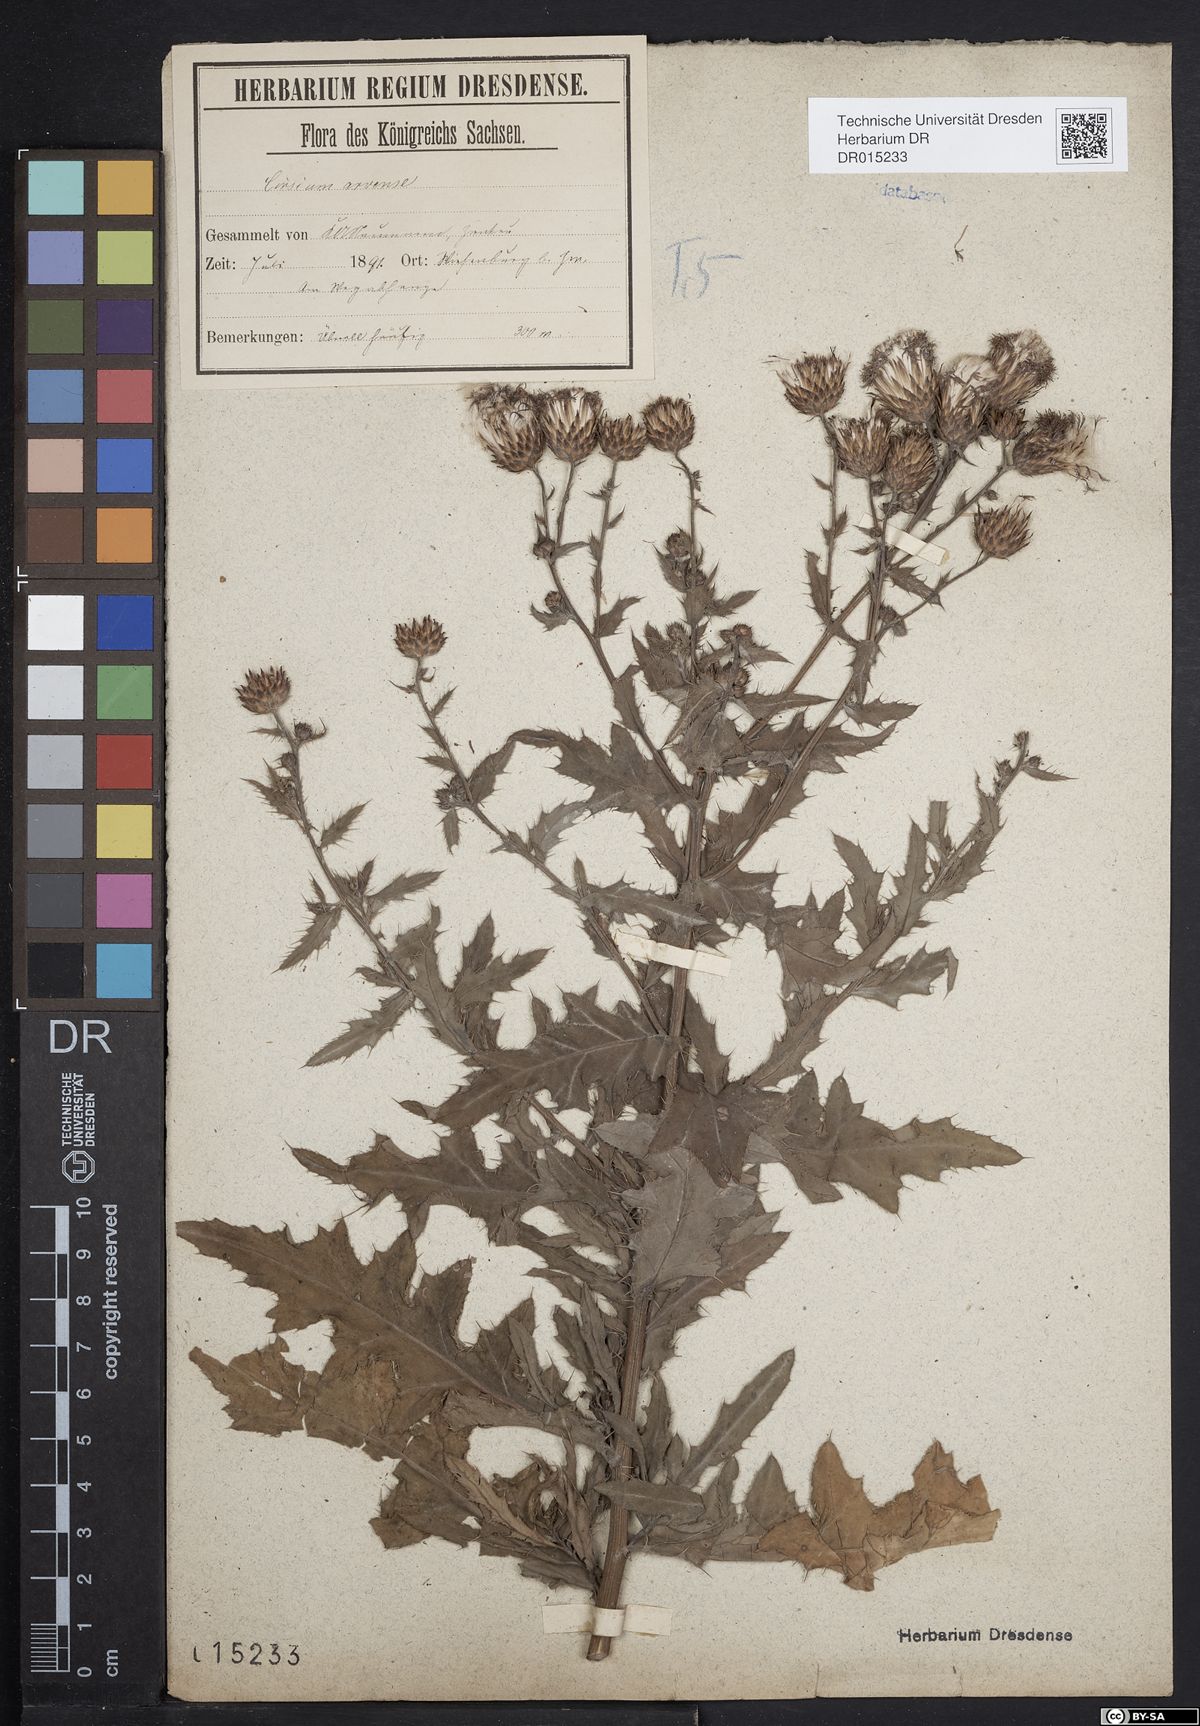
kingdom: Plantae
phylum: Tracheophyta
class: Magnoliopsida
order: Asterales
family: Asteraceae
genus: Cirsium
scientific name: Cirsium arvense
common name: Creeping thistle
